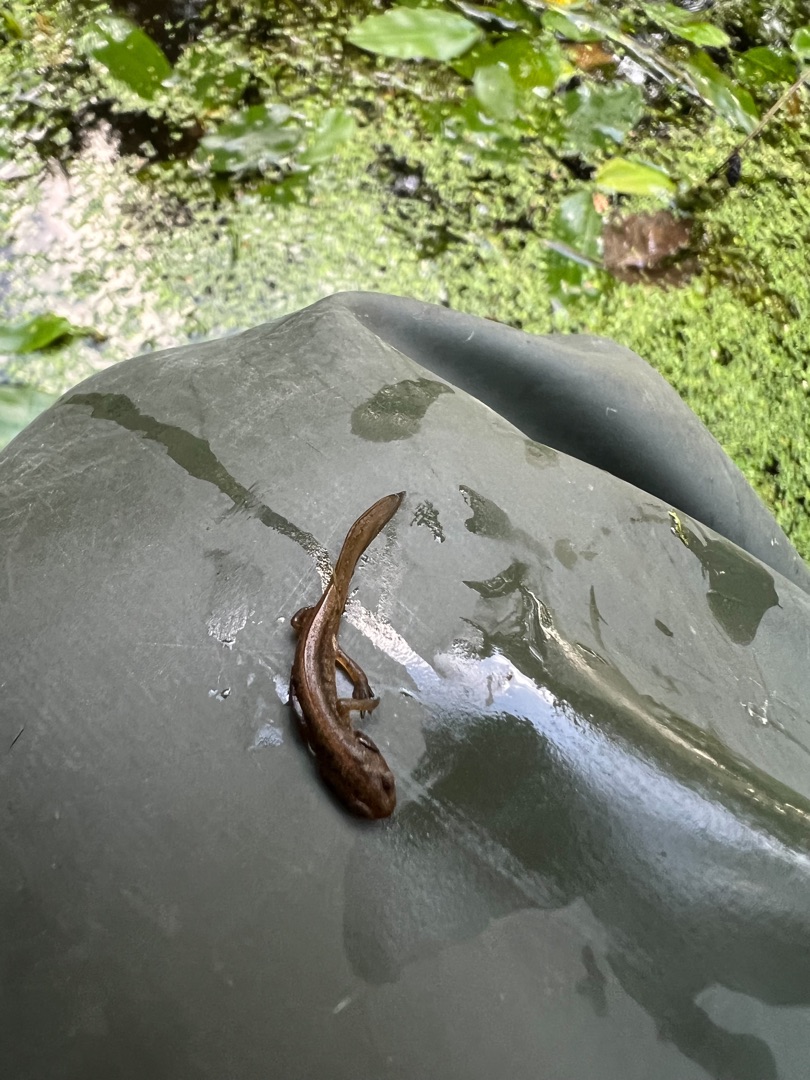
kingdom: Animalia
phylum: Chordata
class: Amphibia
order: Caudata
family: Salamandridae
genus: Lissotriton
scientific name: Lissotriton vulgaris
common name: Lille vandsalamander
